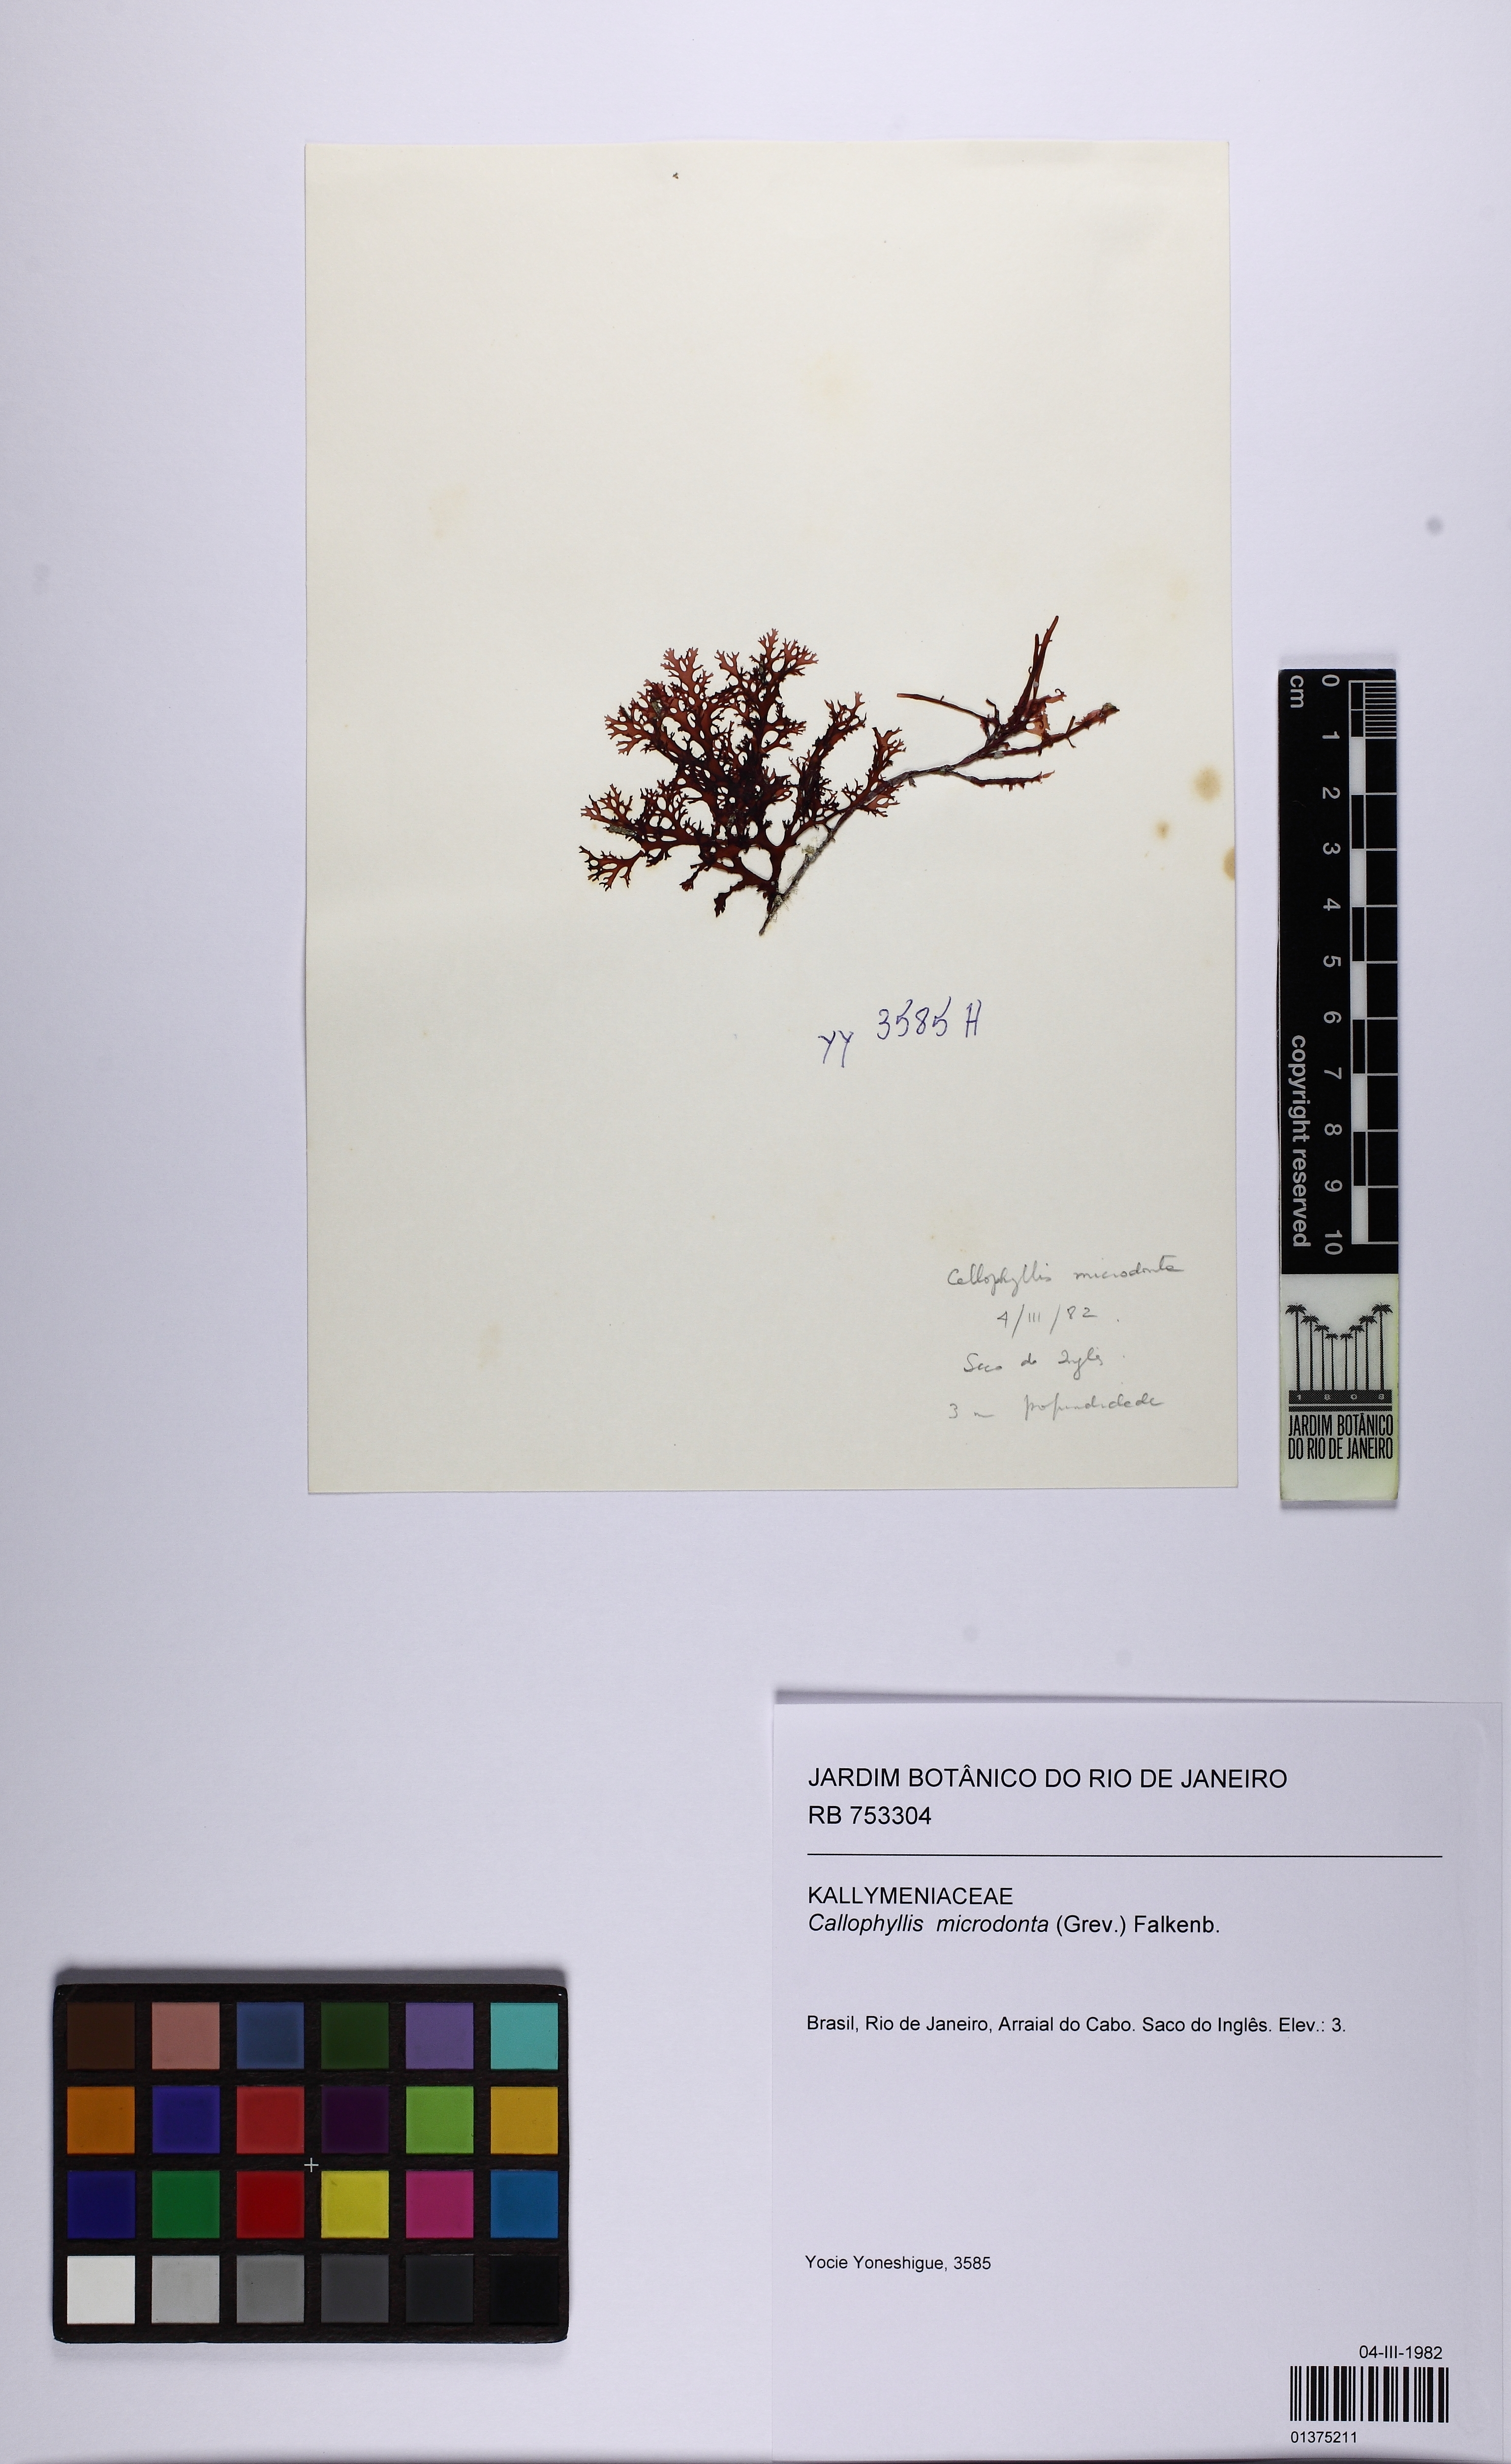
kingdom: Plantae
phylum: Rhodophyta
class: Florideophyceae
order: Gigartinales
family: Kallymeniaceae
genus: Callophyllis
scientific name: Callophyllis microdonta
